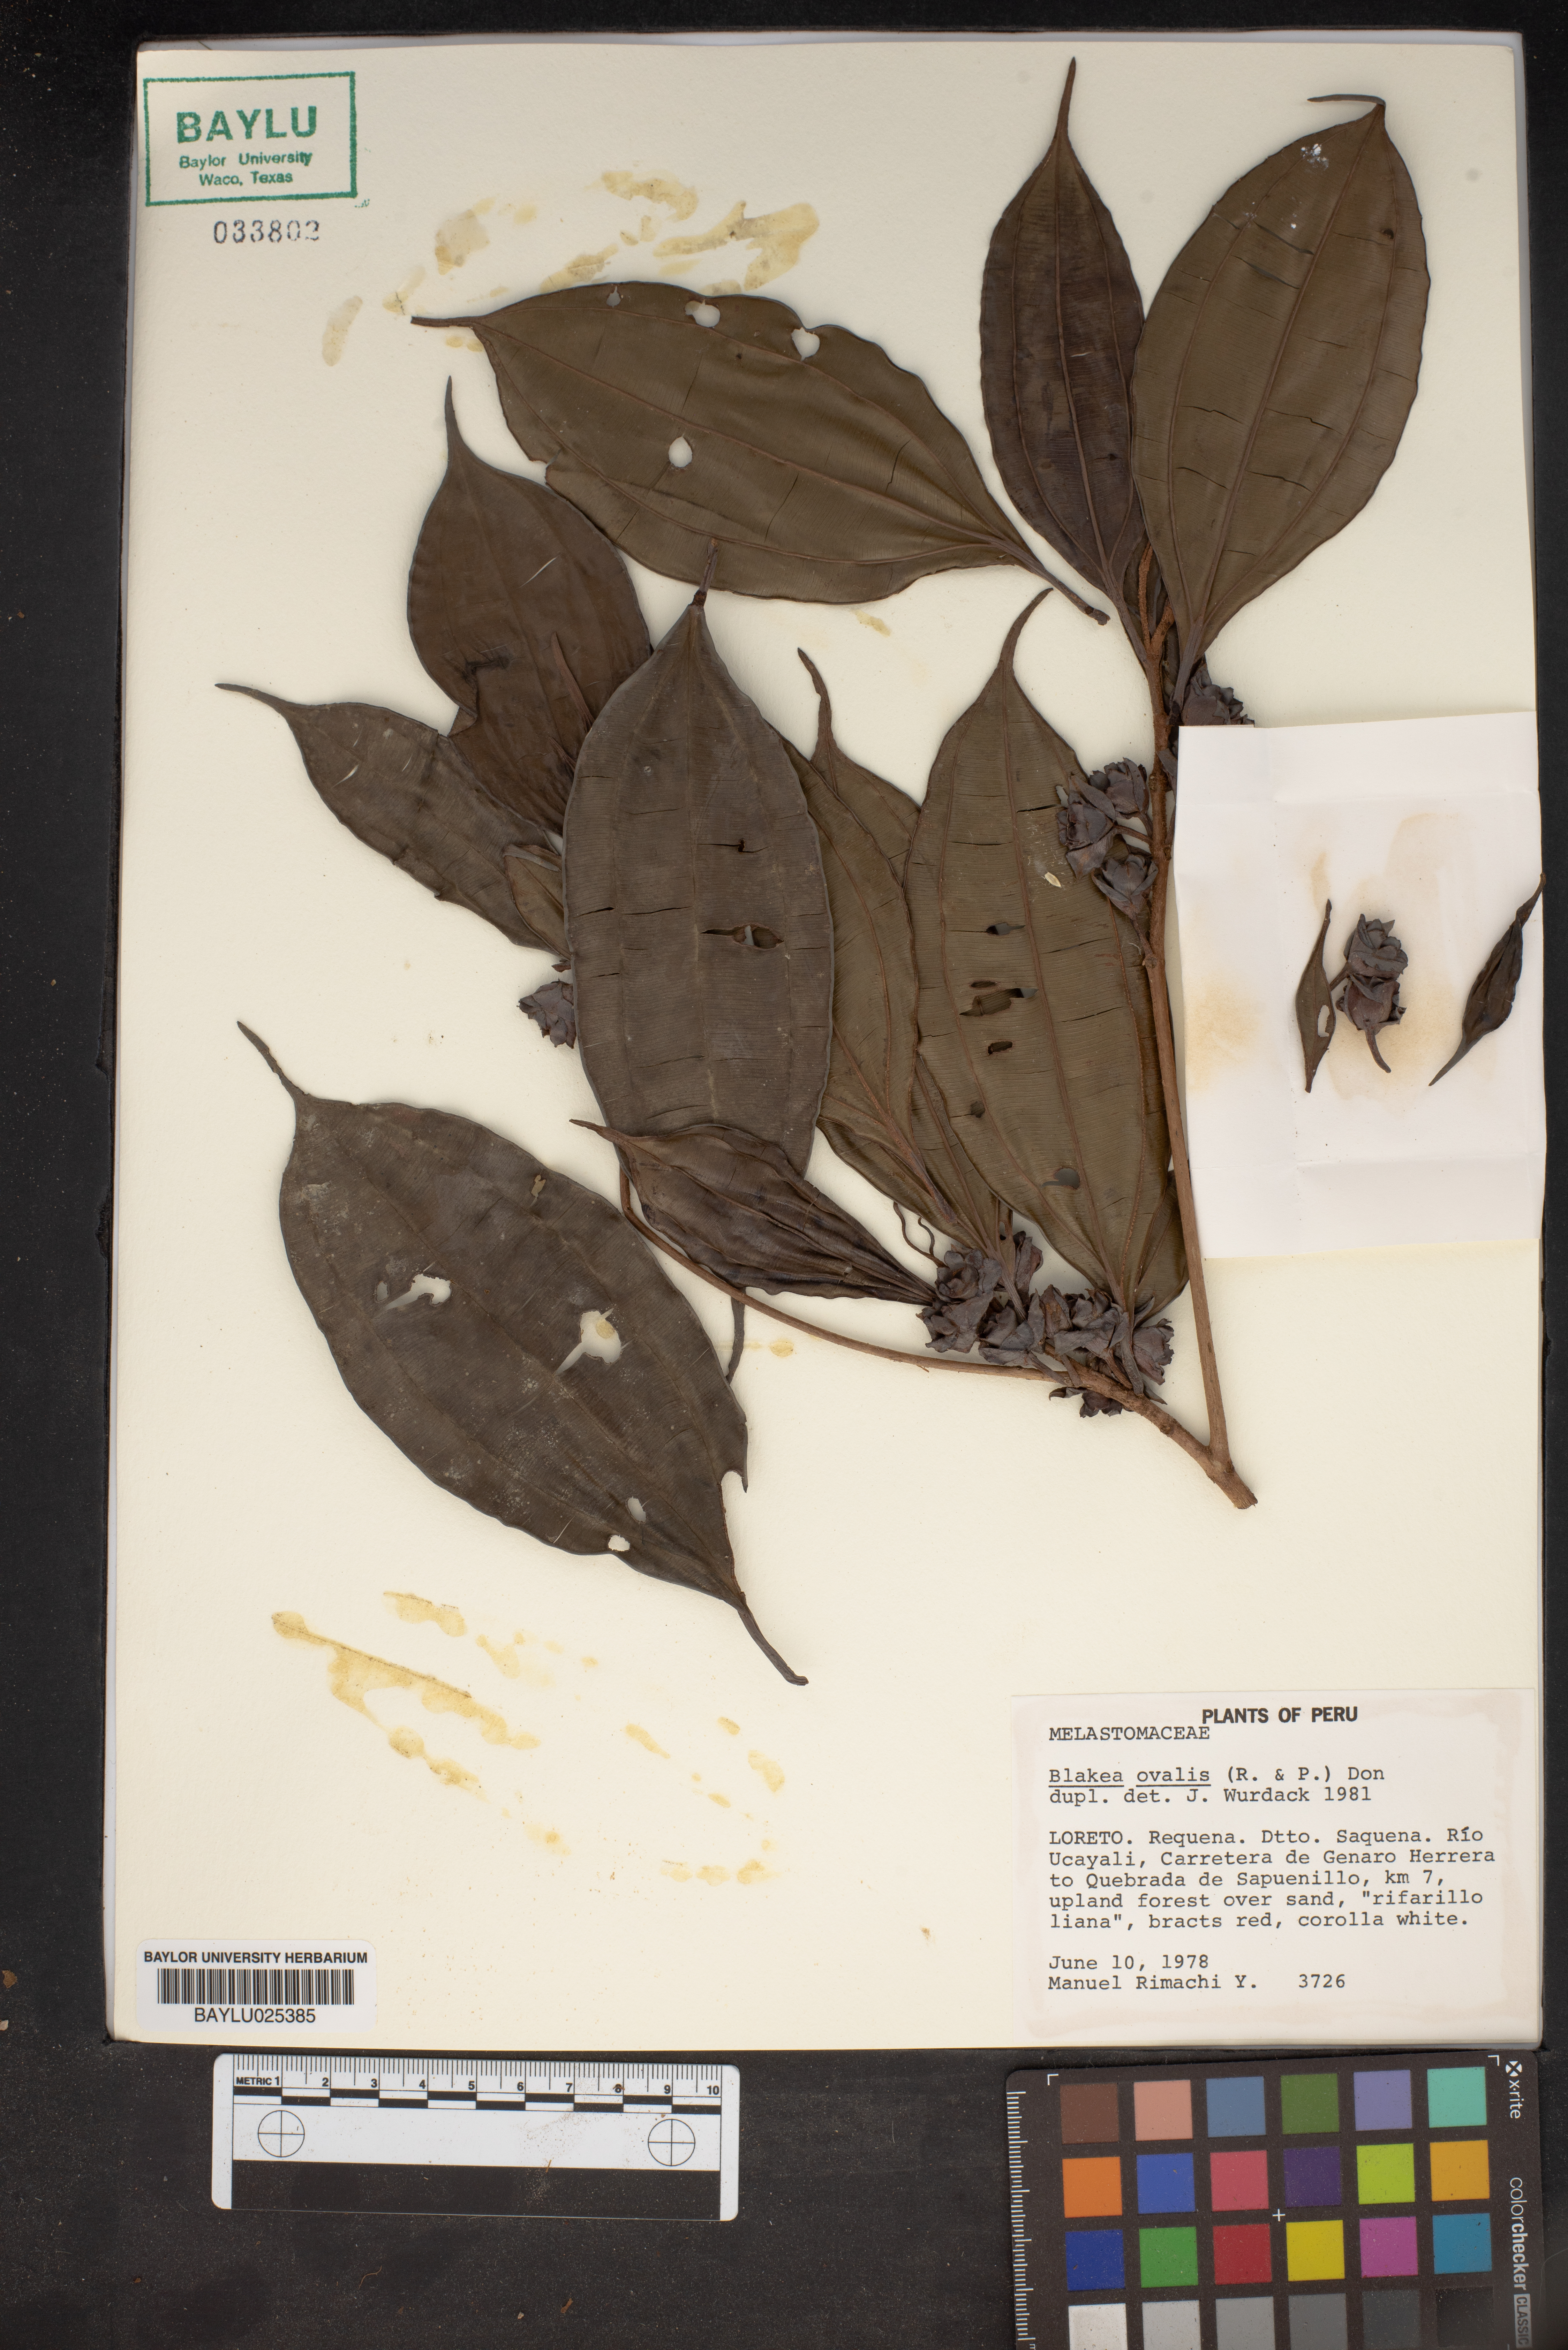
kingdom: Plantae
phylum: Tracheophyta
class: Magnoliopsida
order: Myrtales
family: Melastomataceae
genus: Blakea
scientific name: Blakea ovalis
